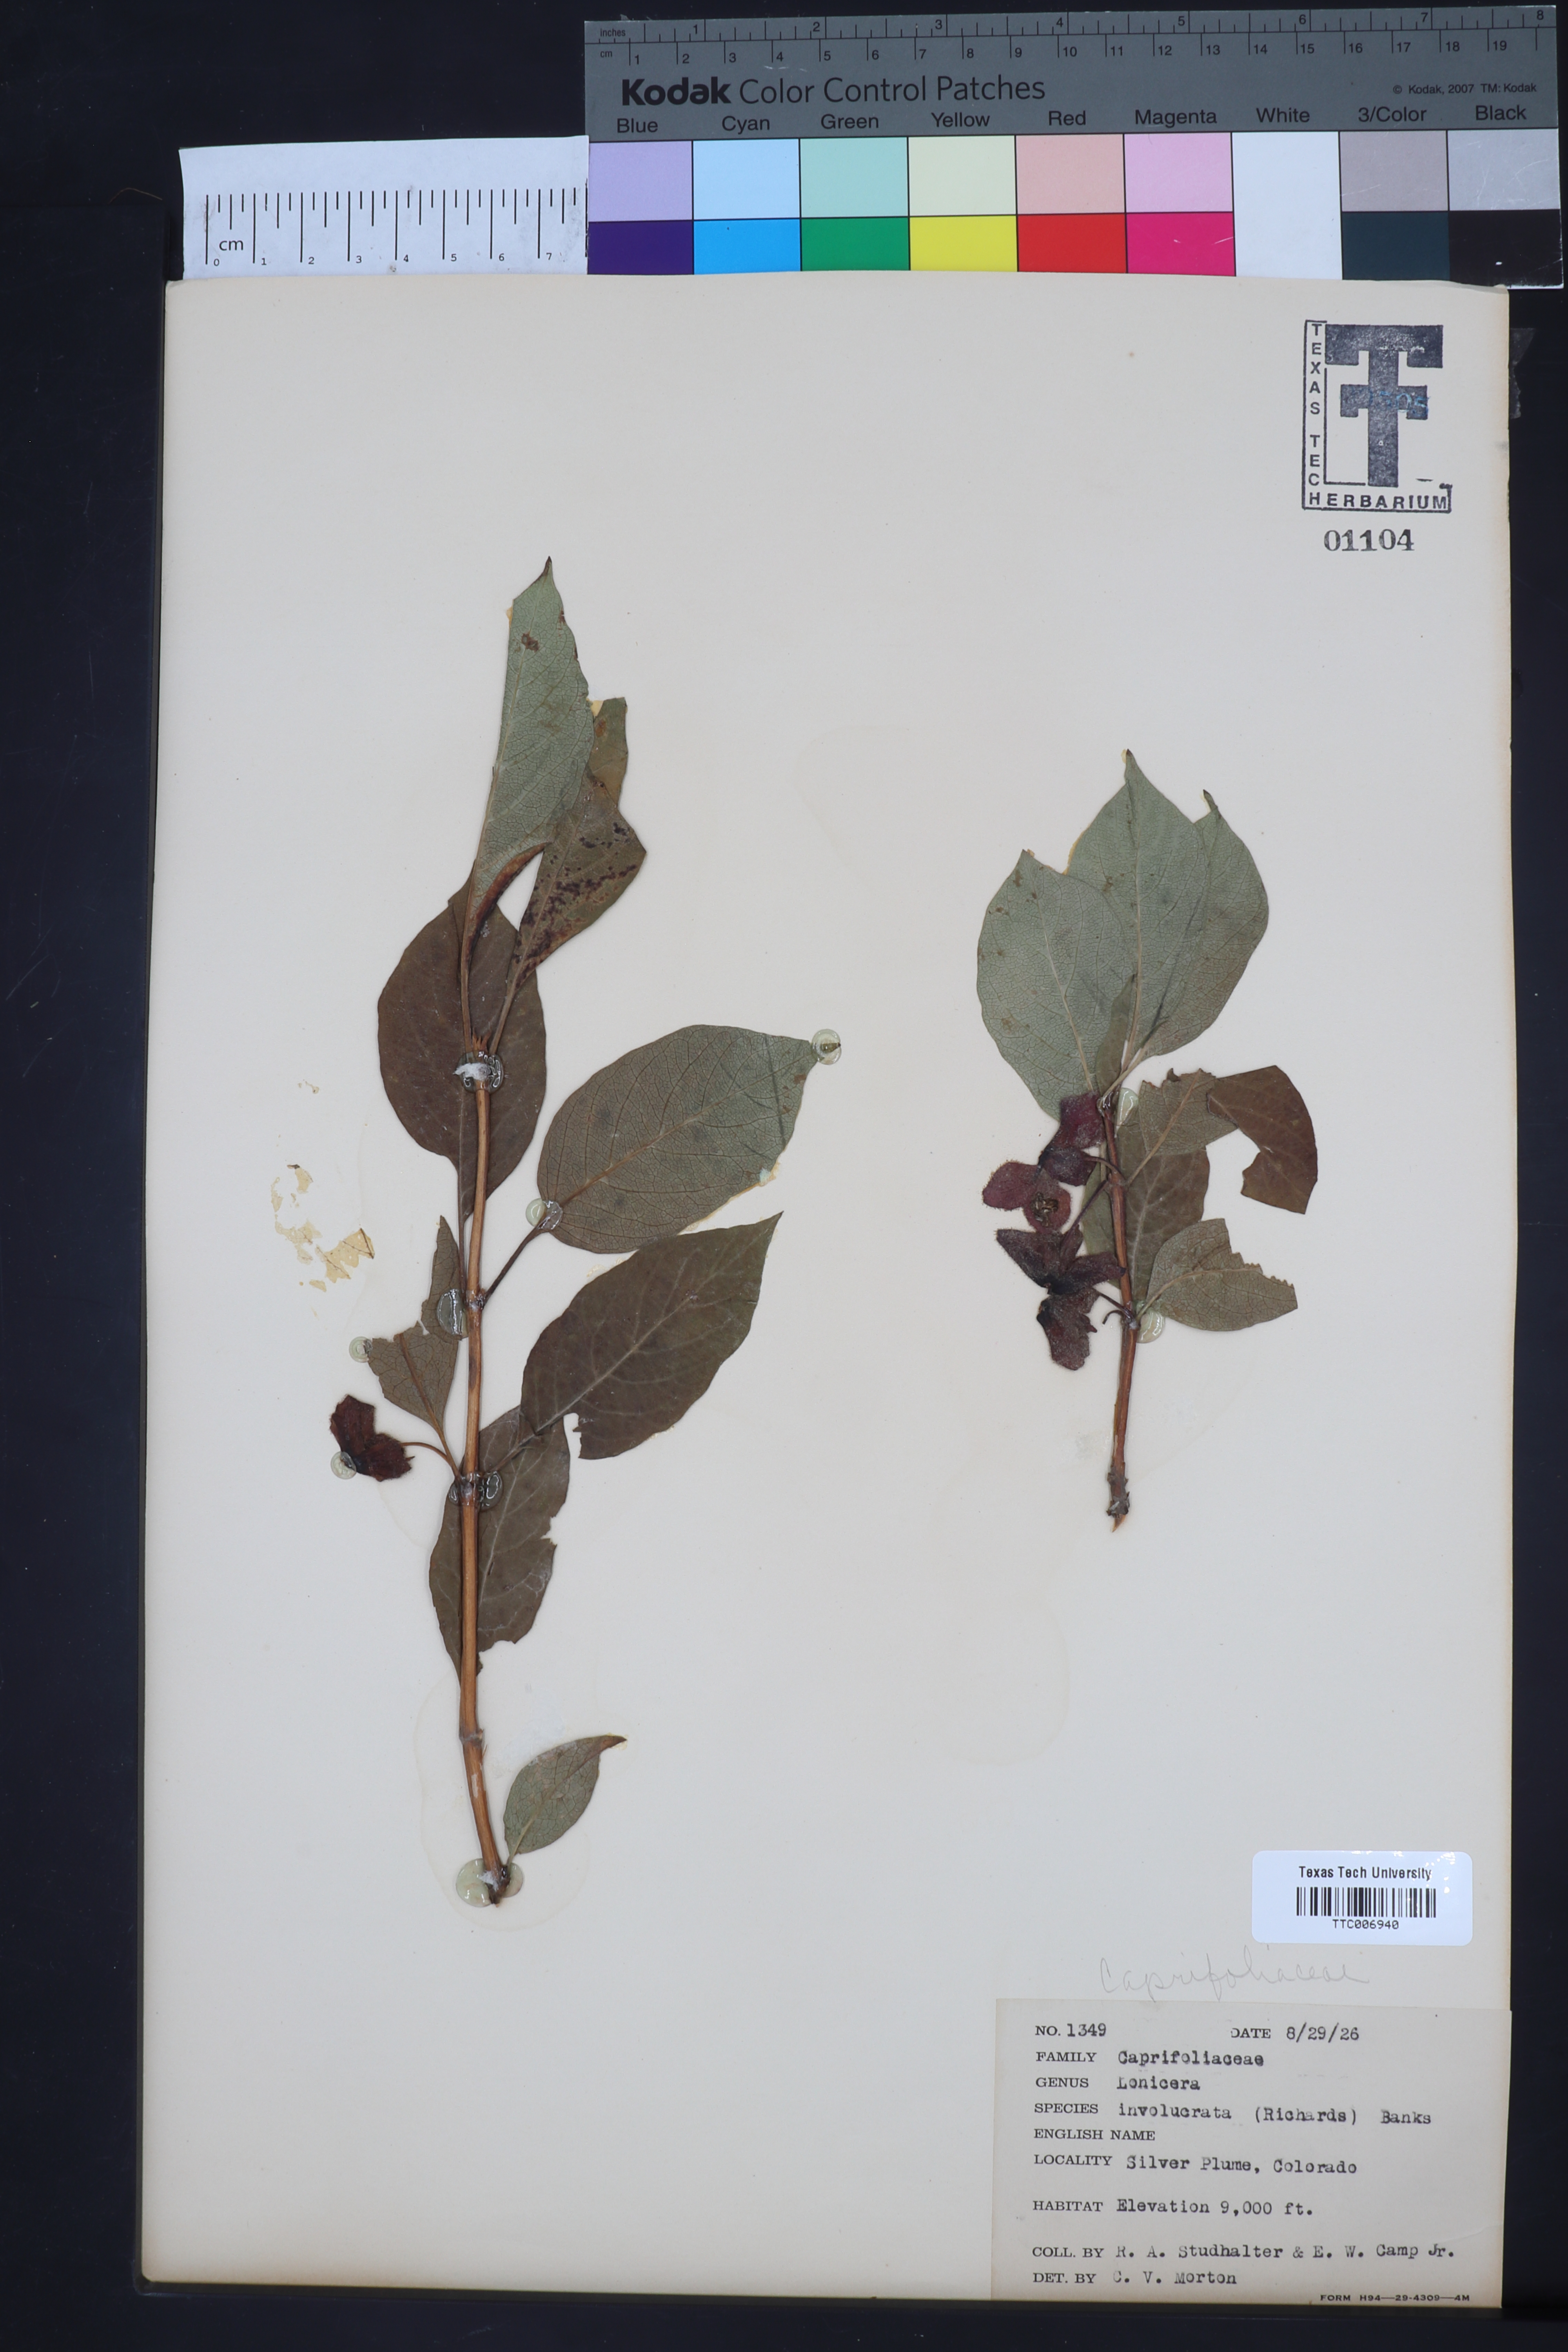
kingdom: Plantae
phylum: Tracheophyta
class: Magnoliopsida
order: Dipsacales
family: Caprifoliaceae
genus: Lonicera
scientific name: Lonicera involucrata
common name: Californian honeysuckle
